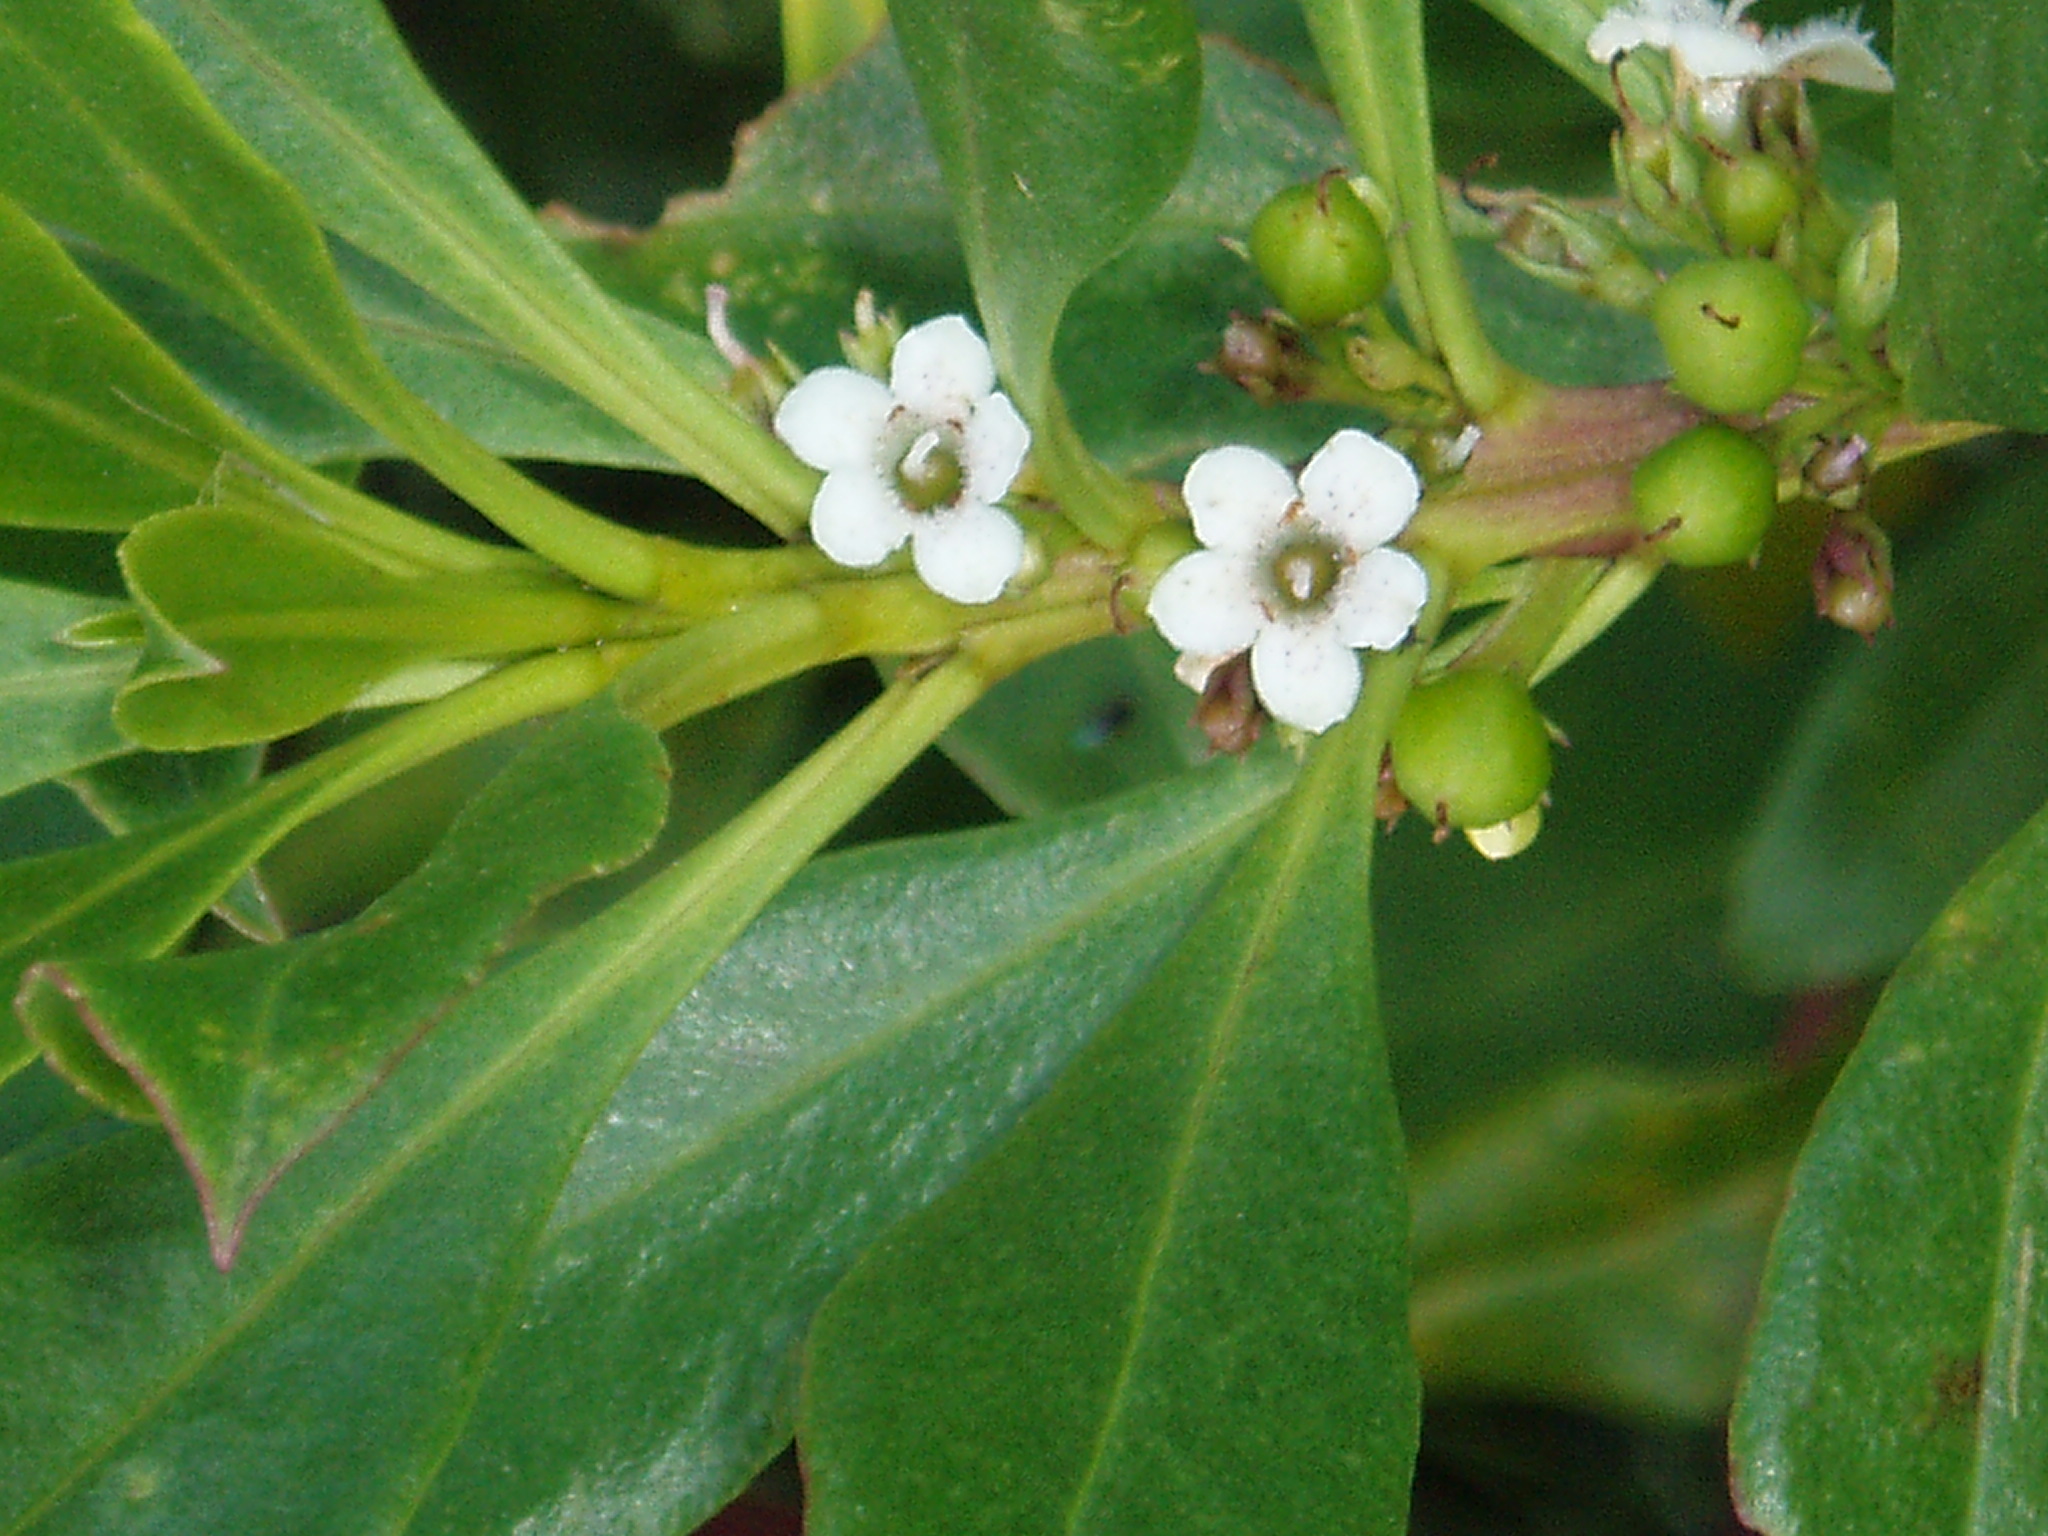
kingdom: Plantae
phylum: Tracheophyta
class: Magnoliopsida
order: Lamiales
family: Scrophulariaceae
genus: Myoporum
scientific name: Myoporum insulare
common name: Common boobialla
